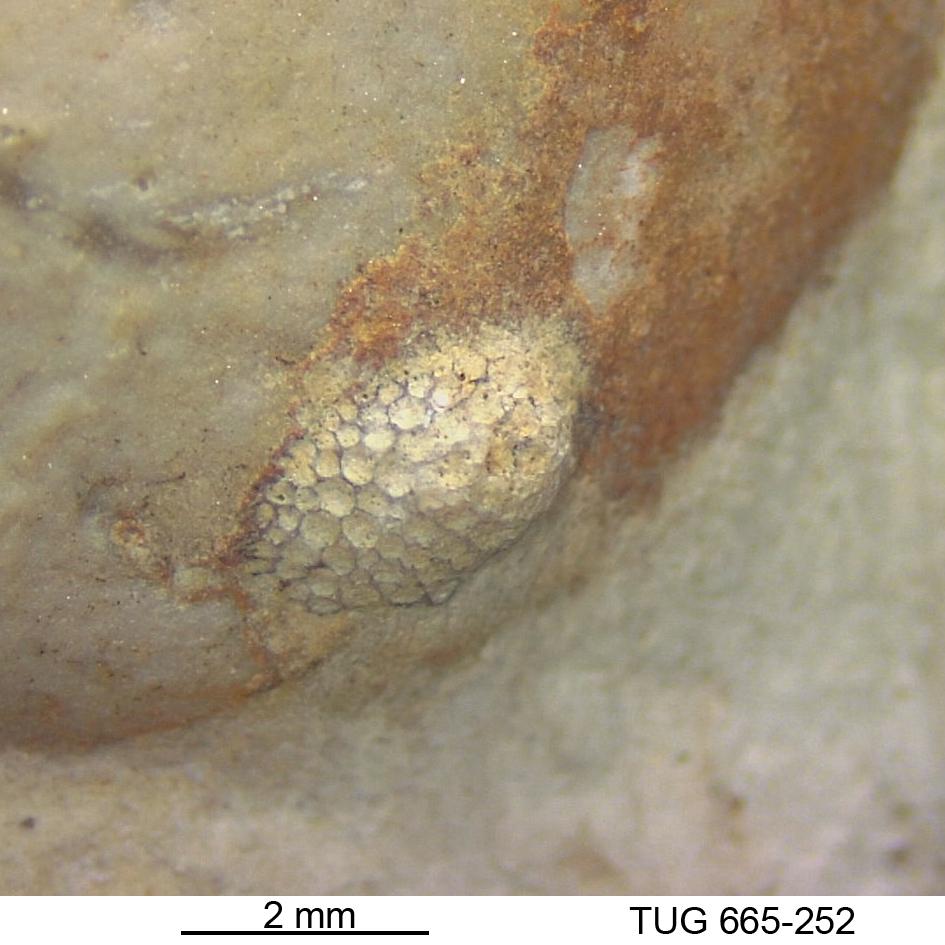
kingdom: Animalia
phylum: Bryozoa
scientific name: Bryozoa
